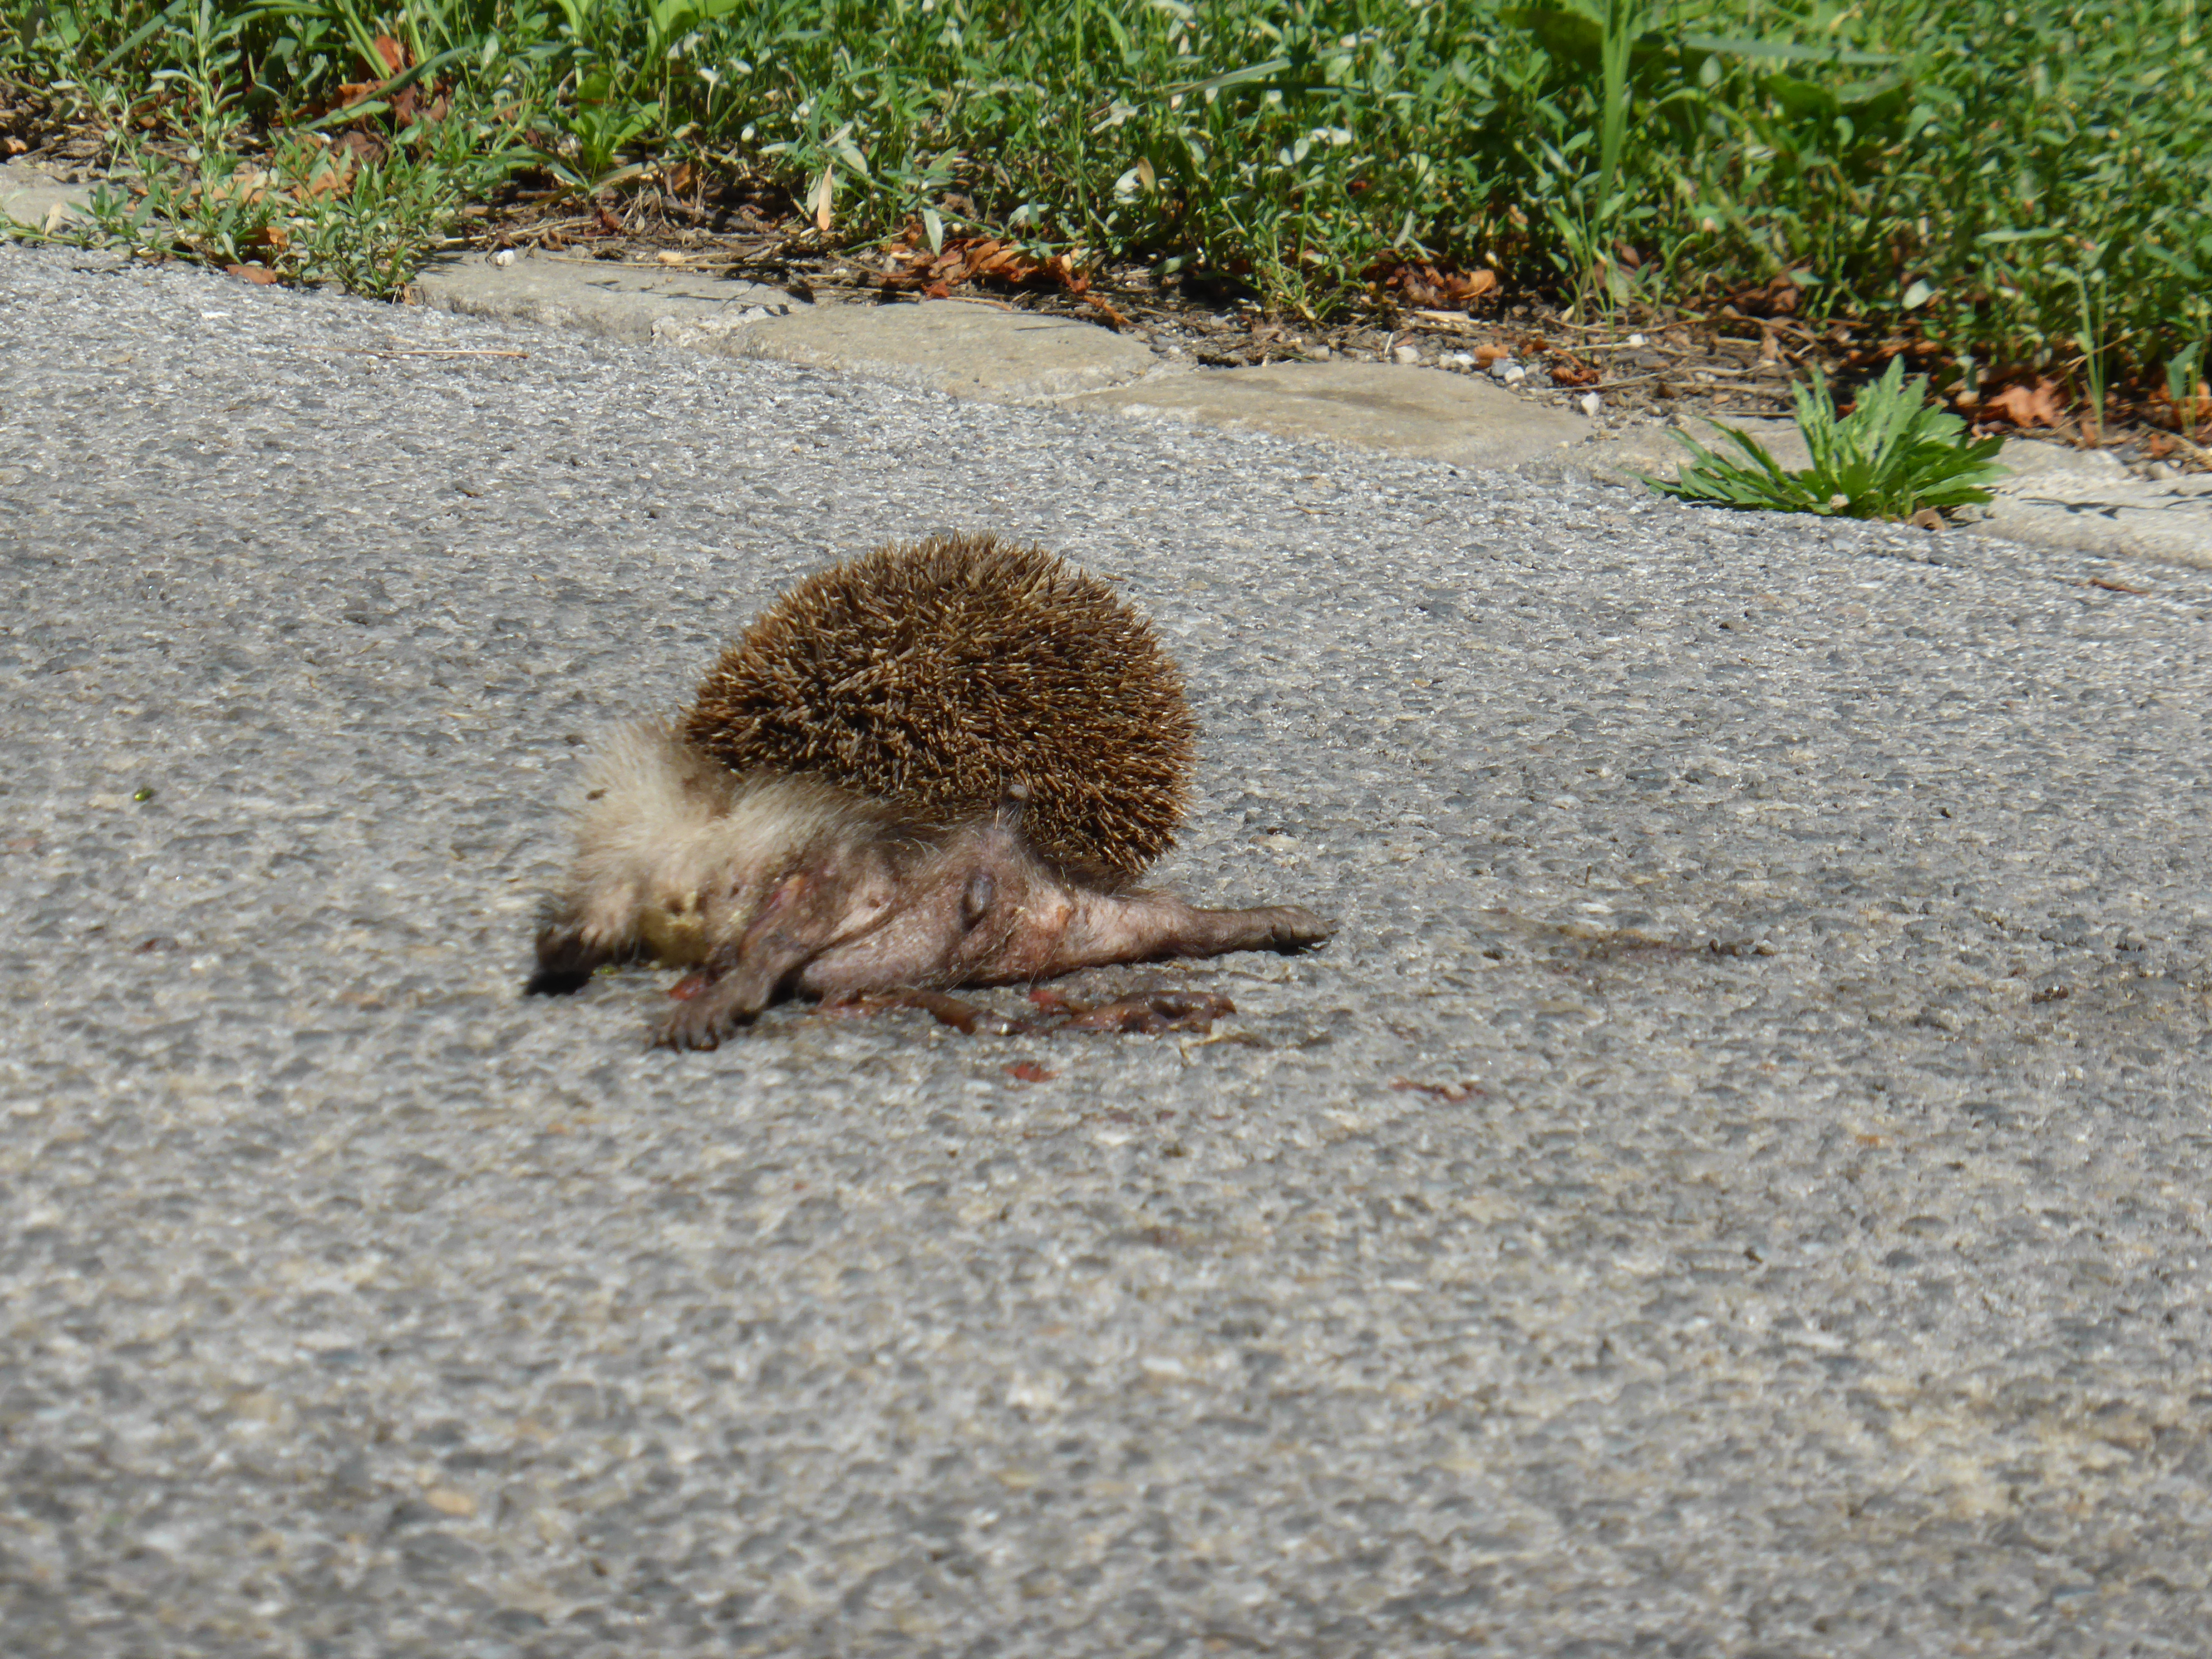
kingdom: Animalia
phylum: Chordata
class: Mammalia
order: Erinaceomorpha
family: Erinaceidae
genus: Erinaceus
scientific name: Erinaceus
